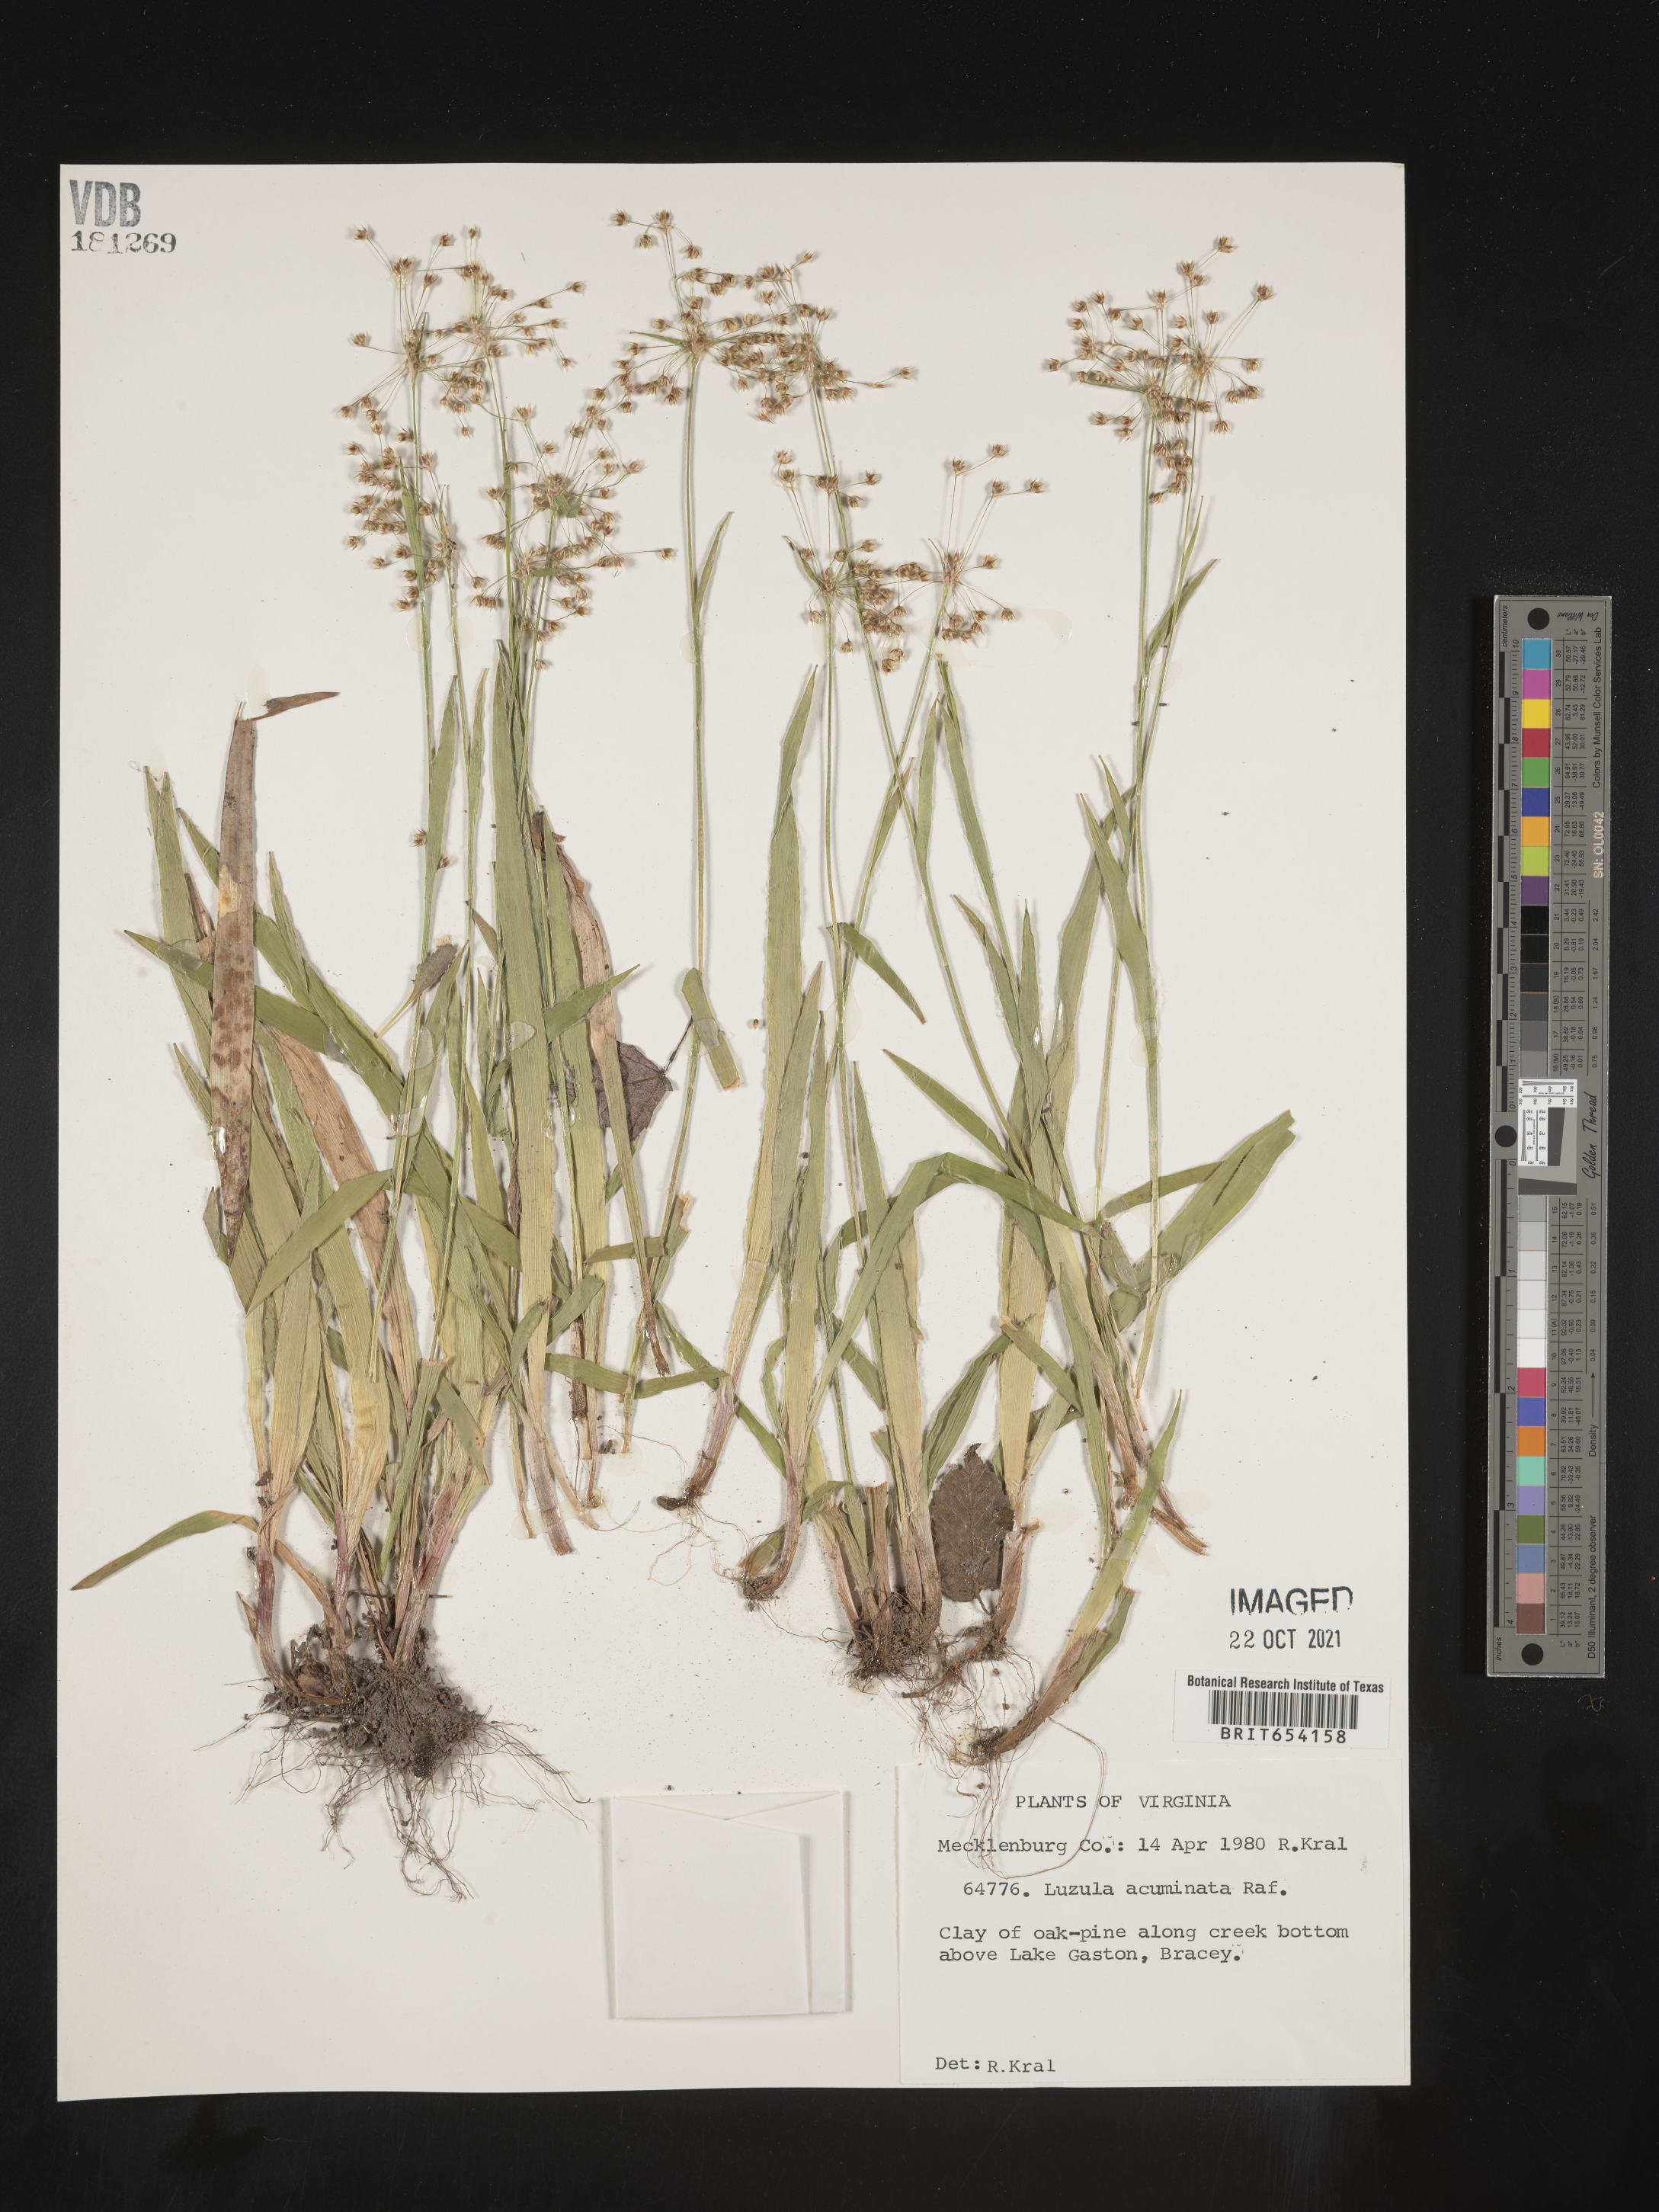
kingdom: Plantae
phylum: Tracheophyta
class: Liliopsida
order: Poales
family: Juncaceae
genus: Luzula
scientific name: Luzula acuminata
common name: Hairy woodrush
